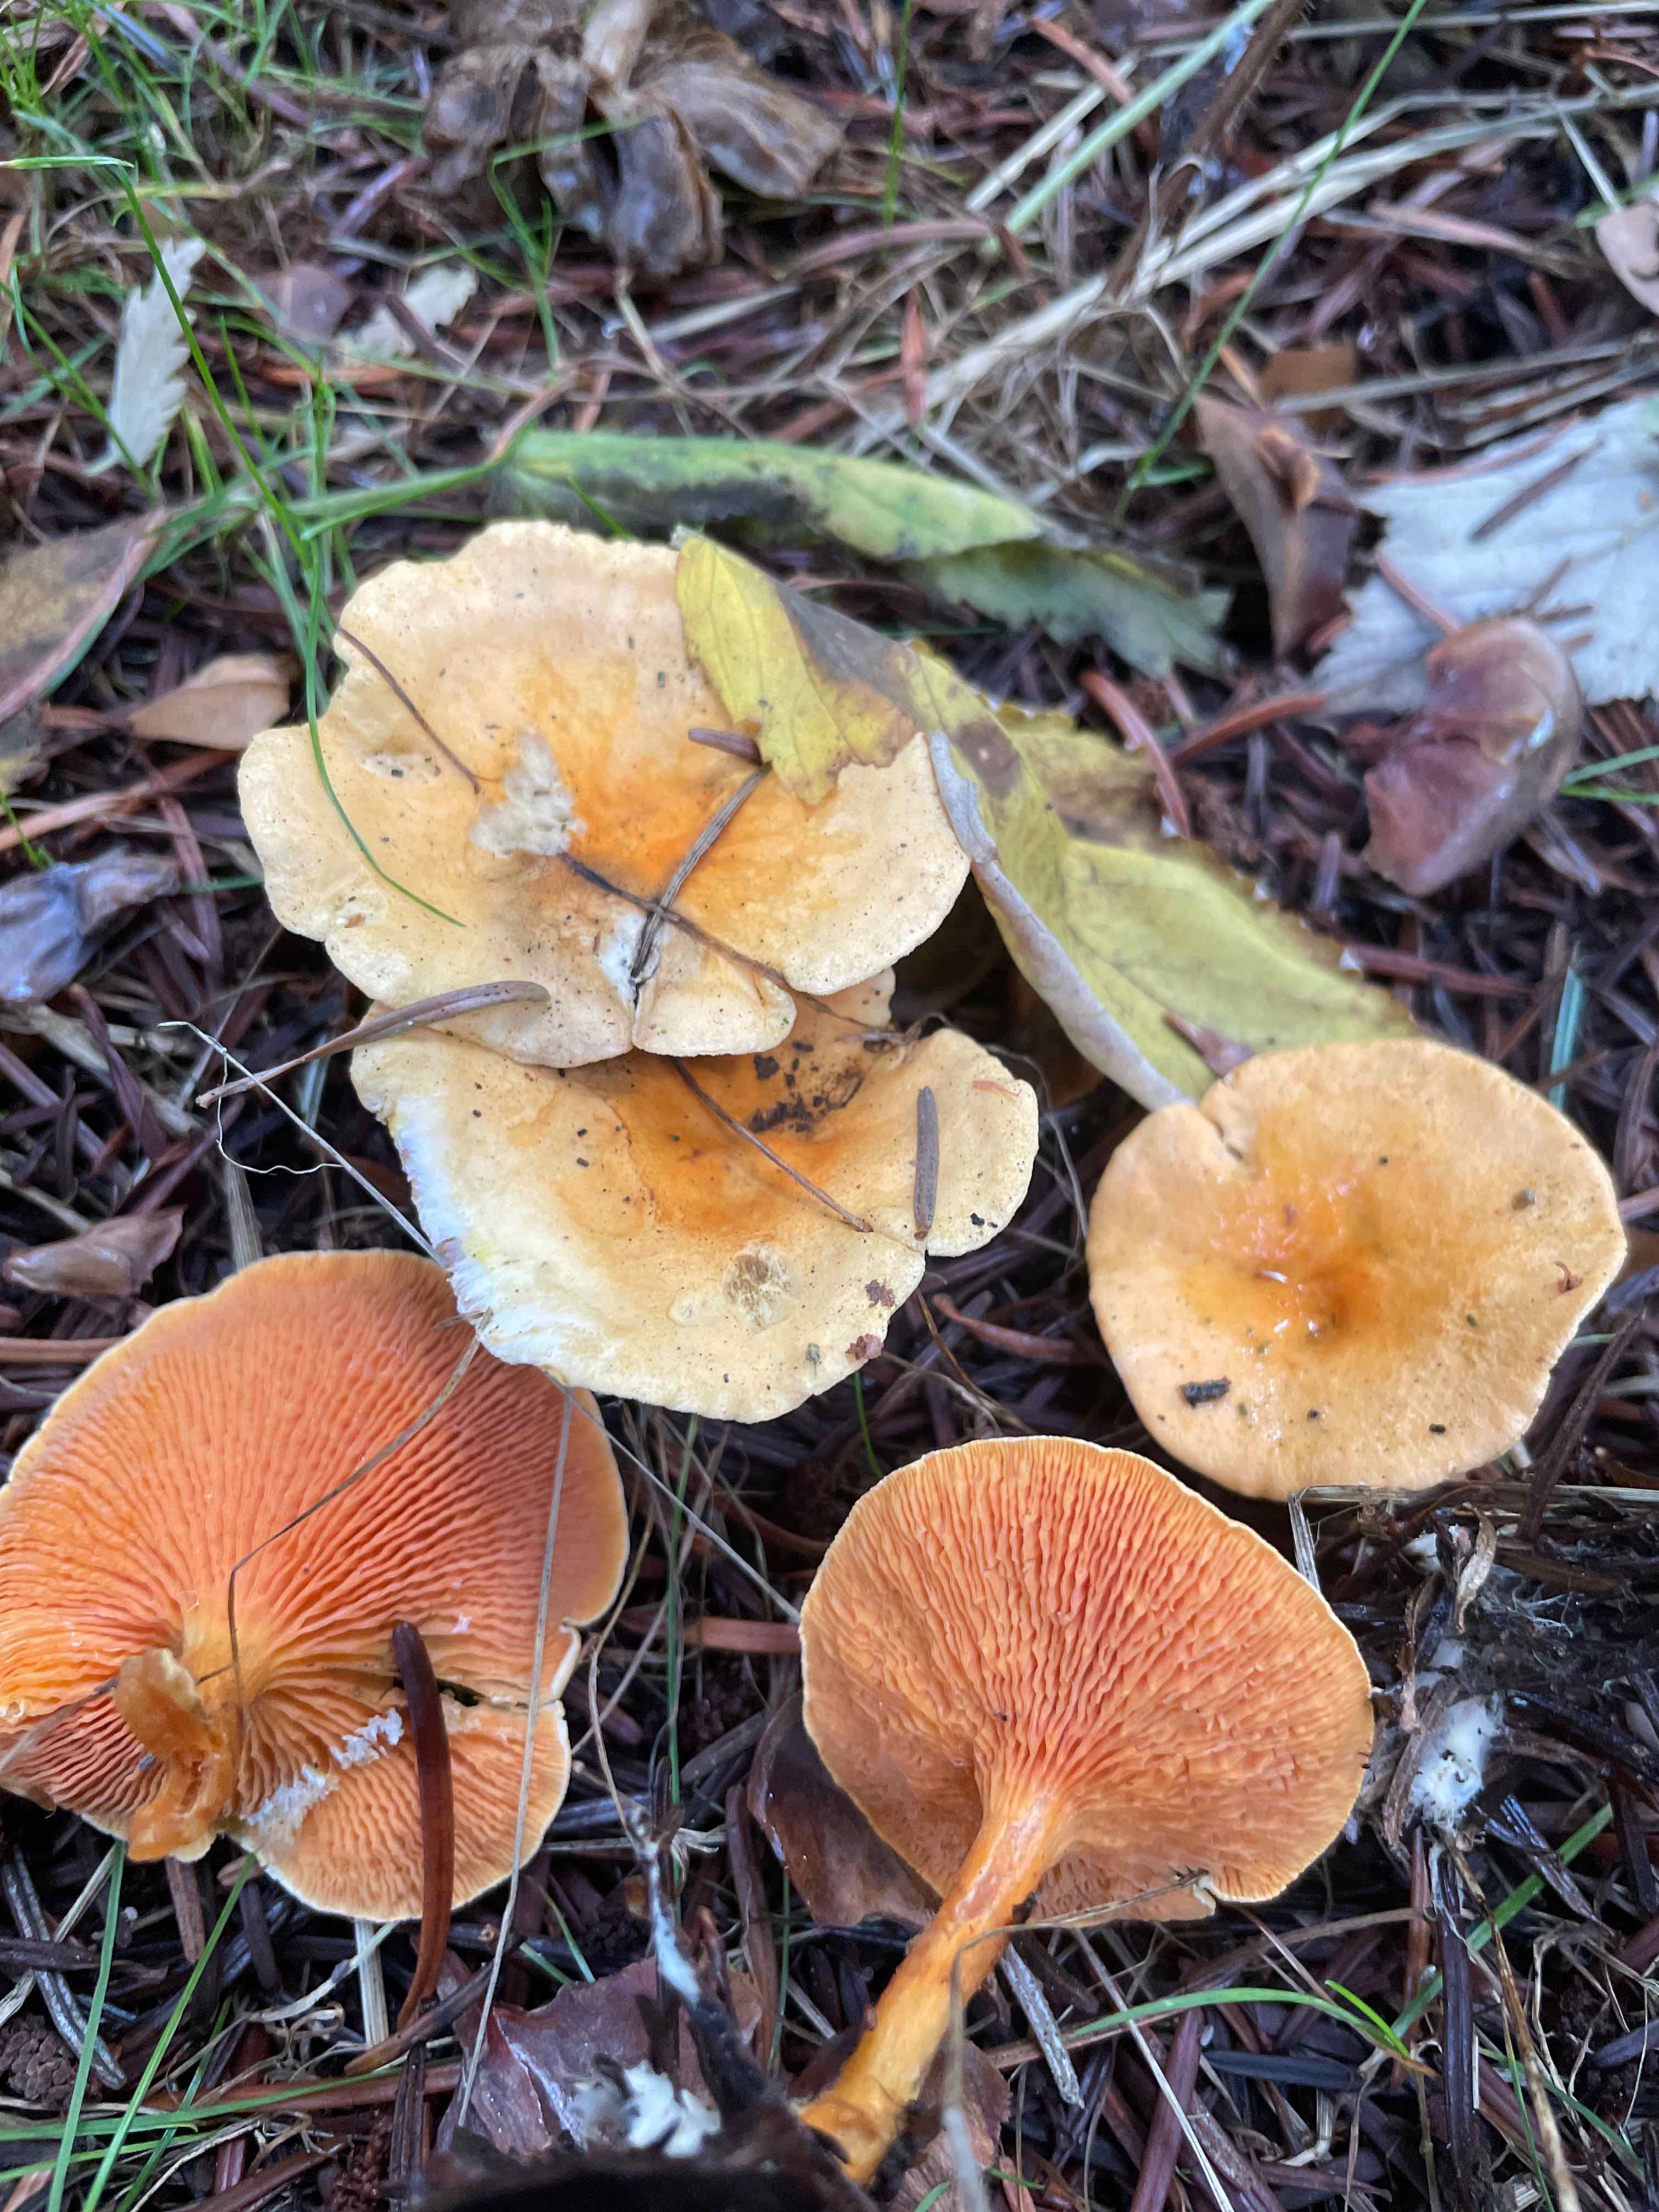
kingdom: Fungi
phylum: Basidiomycota
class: Agaricomycetes
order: Boletales
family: Hygrophoropsidaceae
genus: Hygrophoropsis
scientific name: Hygrophoropsis aurantiaca
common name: almindelig orangekantarel
